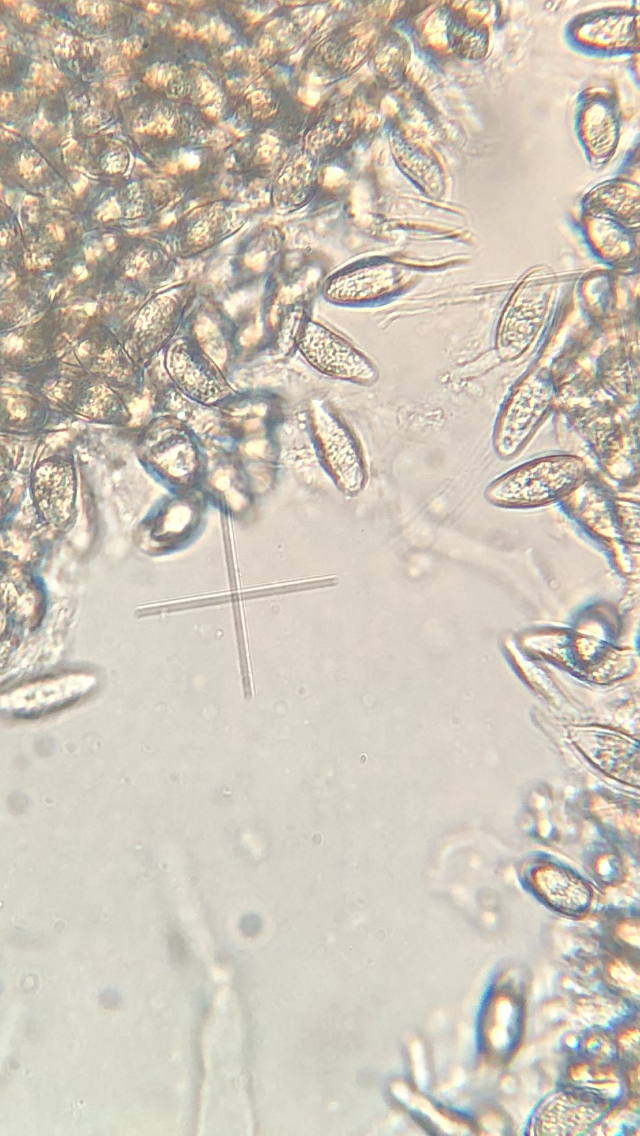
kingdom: Fungi
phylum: Basidiomycota
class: Agaricomycetes
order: Agaricales
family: Lyophyllaceae
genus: Asterophora
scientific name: Asterophora parasitica
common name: grå snyltehat
